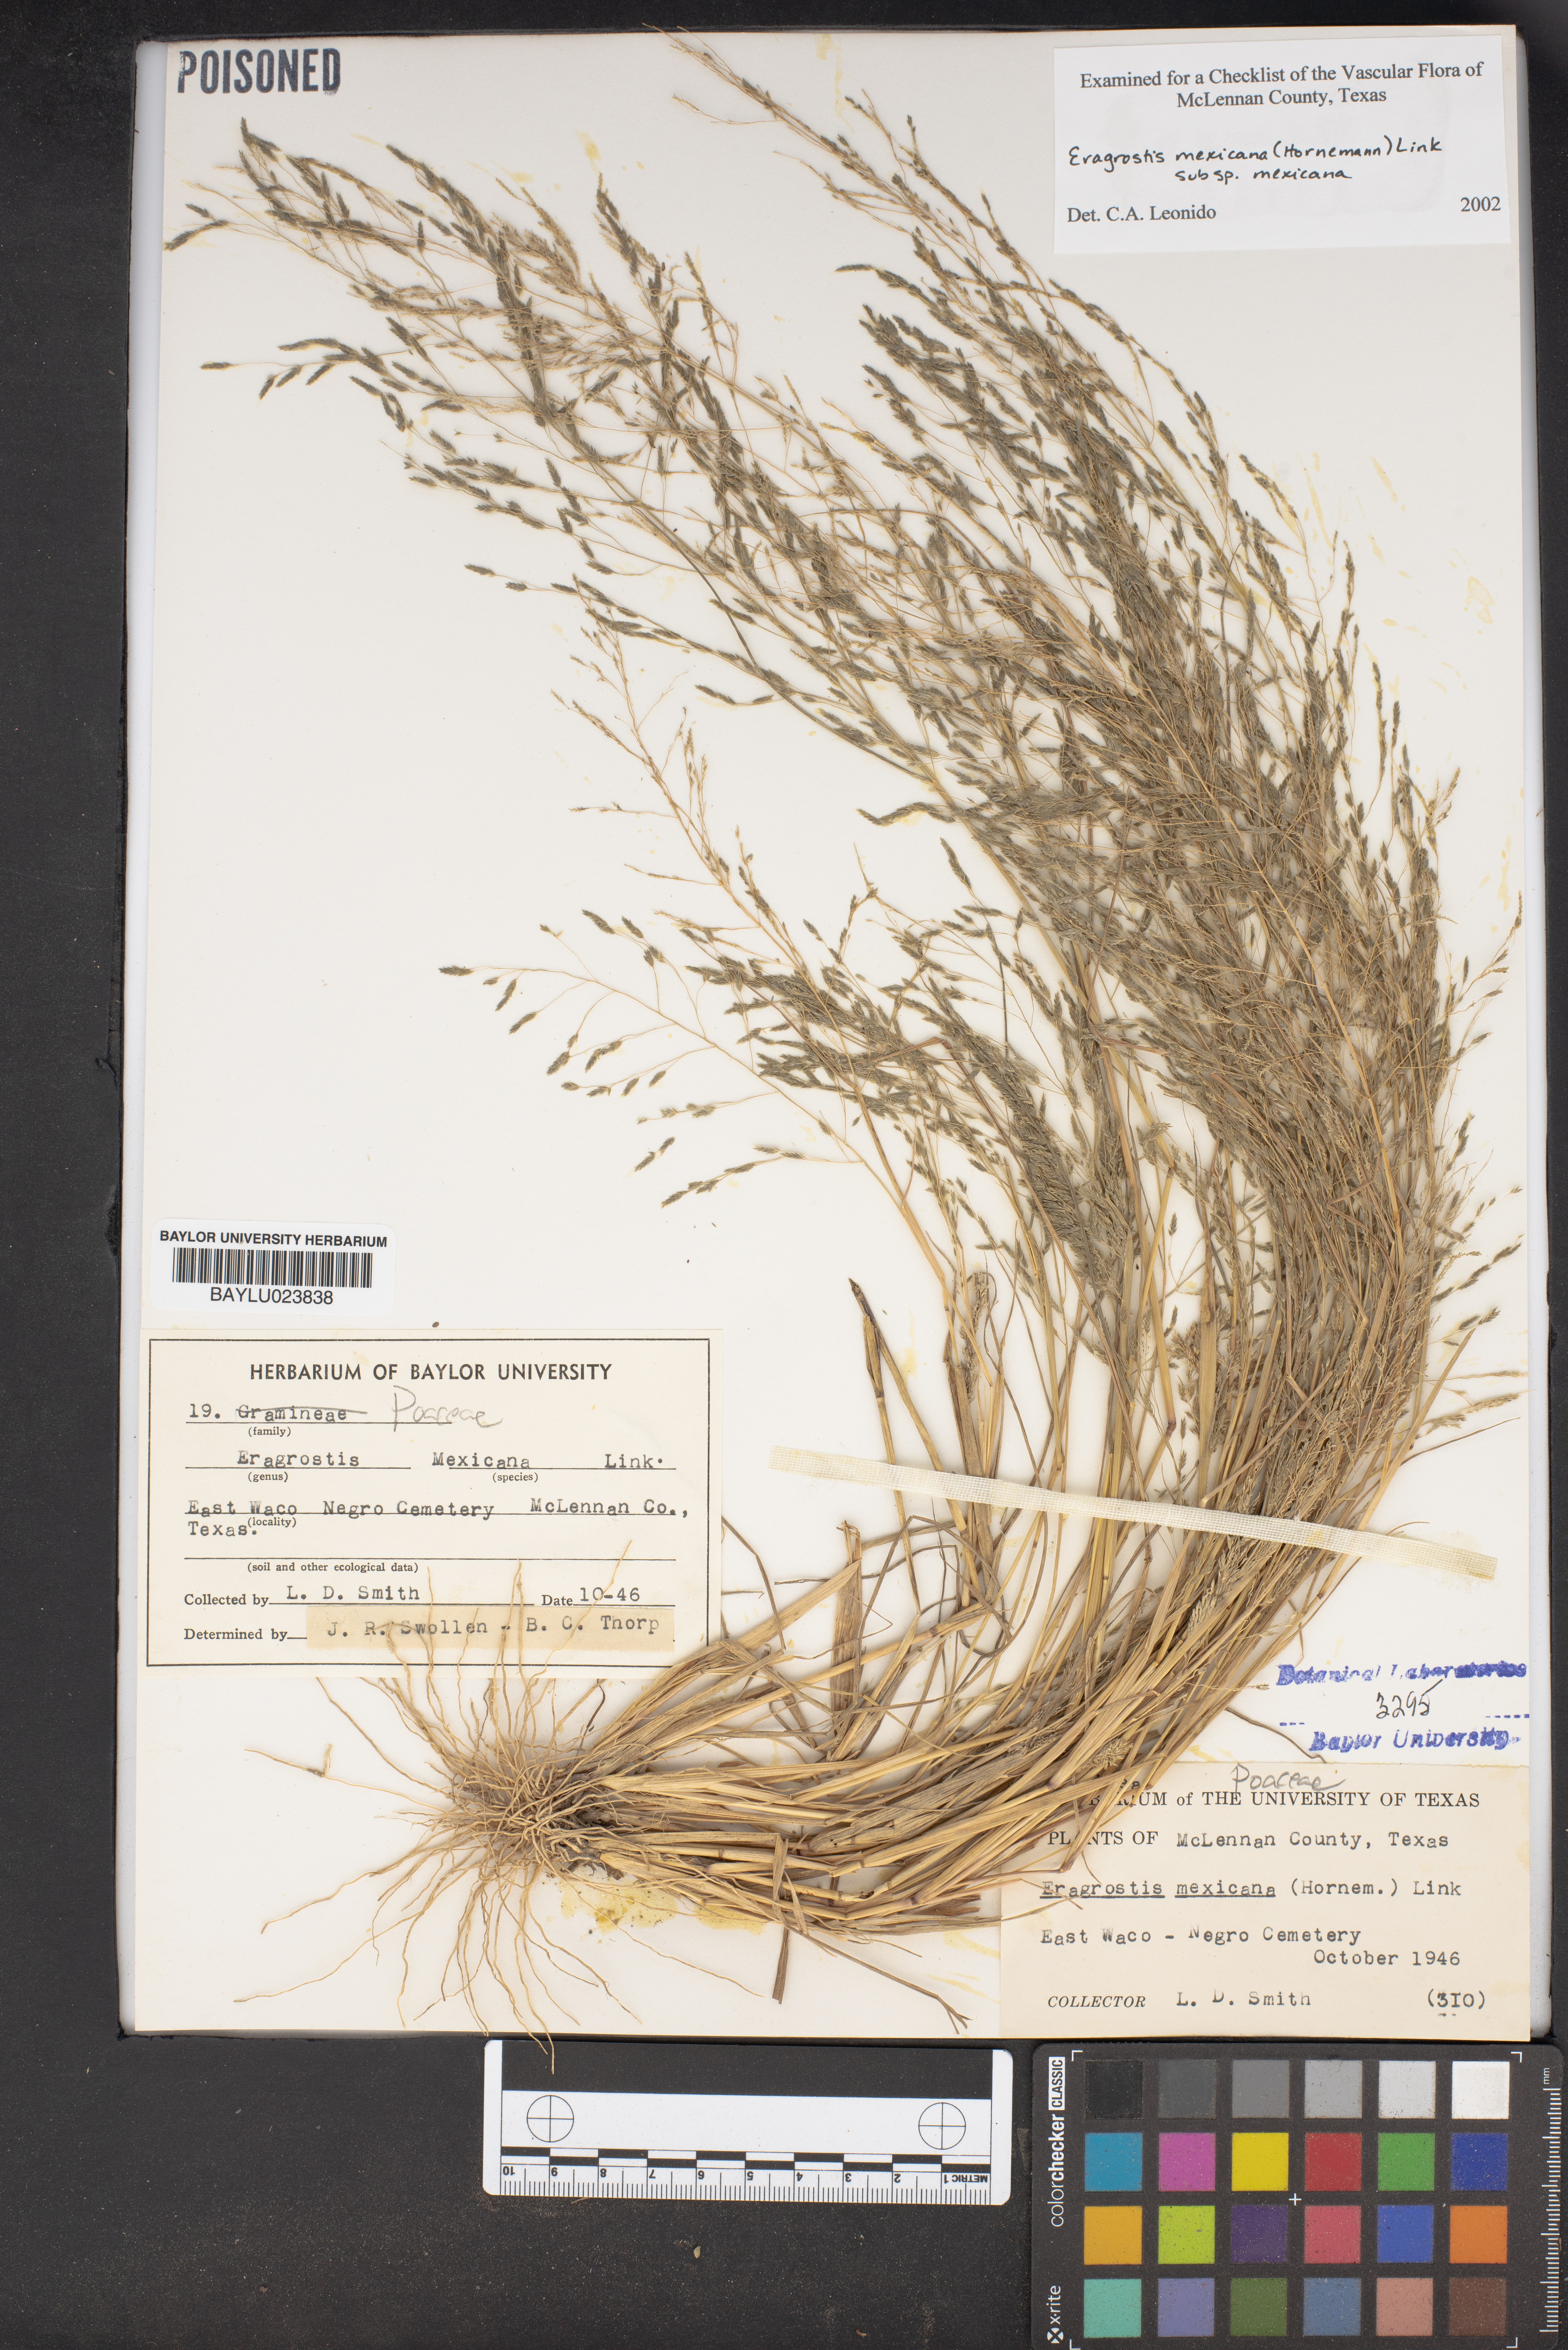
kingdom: Plantae
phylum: Tracheophyta
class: Liliopsida
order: Poales
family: Poaceae
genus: Eragrostis
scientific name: Eragrostis mexicana
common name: Mexican love grass
